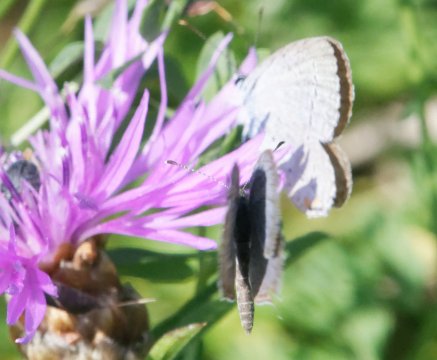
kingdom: Animalia
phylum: Arthropoda
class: Insecta
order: Lepidoptera
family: Lycaenidae
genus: Elkalyce
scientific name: Elkalyce comyntas
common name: Eastern Tailed-Blue
